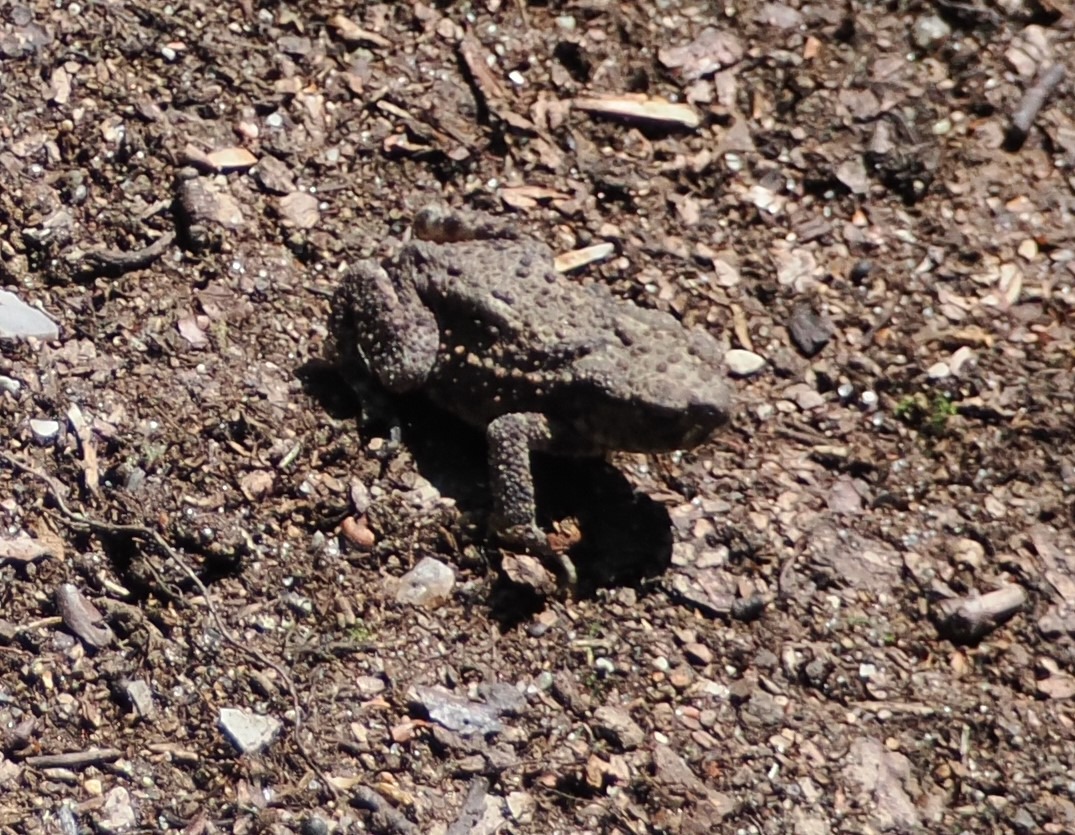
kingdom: Animalia
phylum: Chordata
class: Amphibia
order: Anura
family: Bufonidae
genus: Bufo
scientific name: Bufo bufo
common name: Skrubtudse
